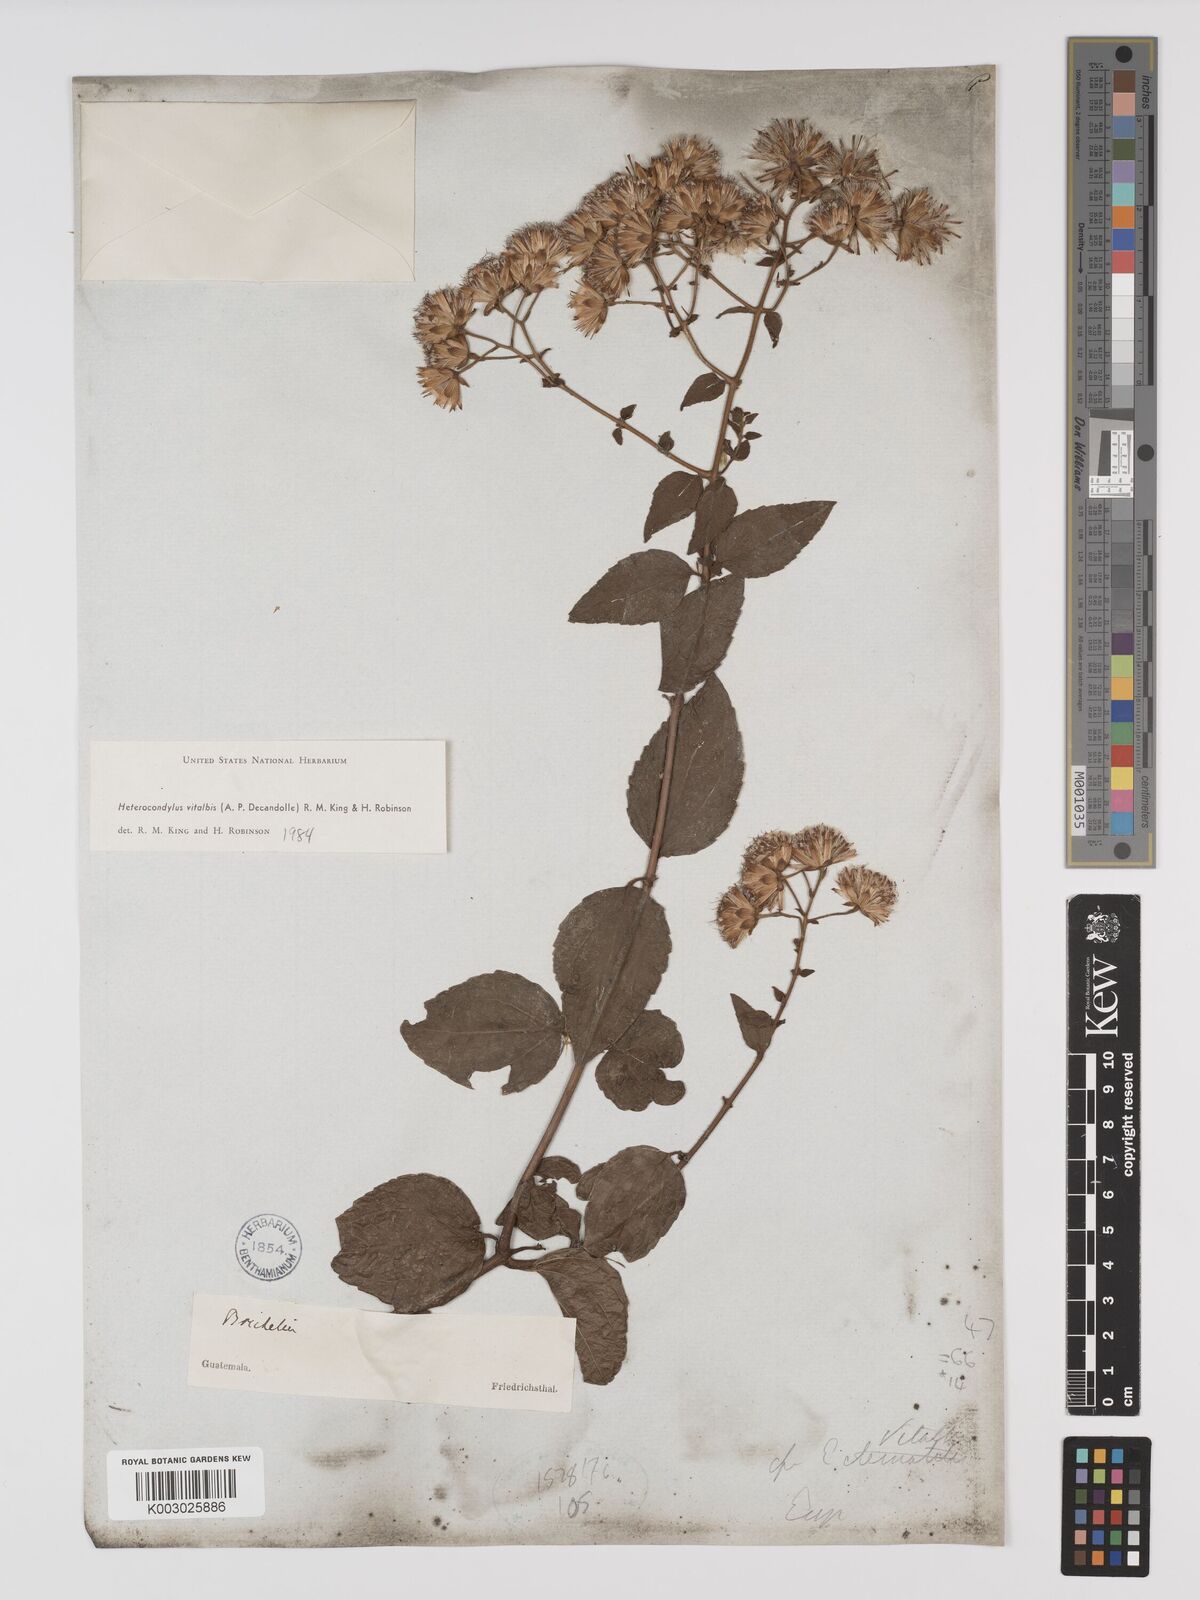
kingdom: Plantae
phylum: Tracheophyta
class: Magnoliopsida
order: Asterales
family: Asteraceae
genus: Heterocondylus
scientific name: Heterocondylus vitalbae
